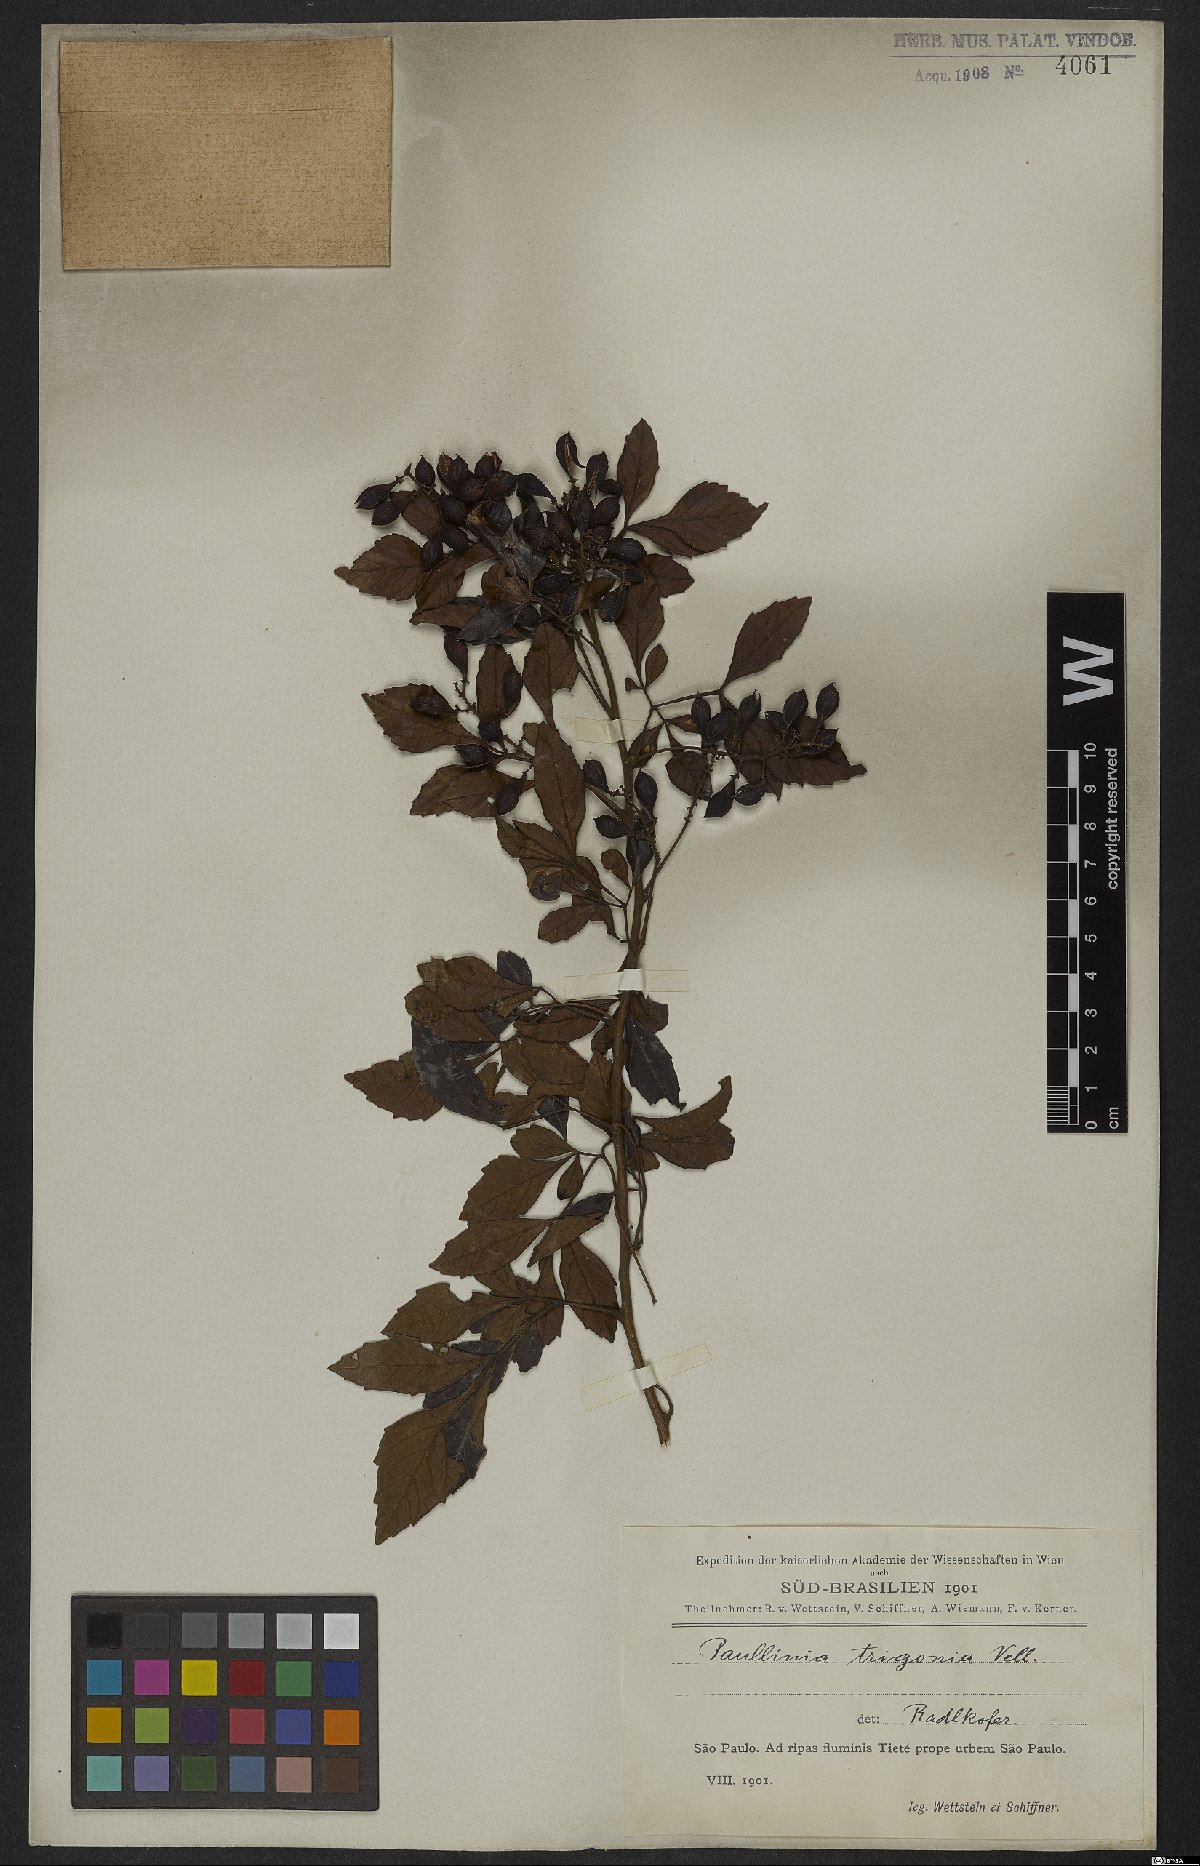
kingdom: Plantae
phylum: Tracheophyta
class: Magnoliopsida
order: Sapindales
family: Sapindaceae
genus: Paullinia
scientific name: Paullinia trigonia
